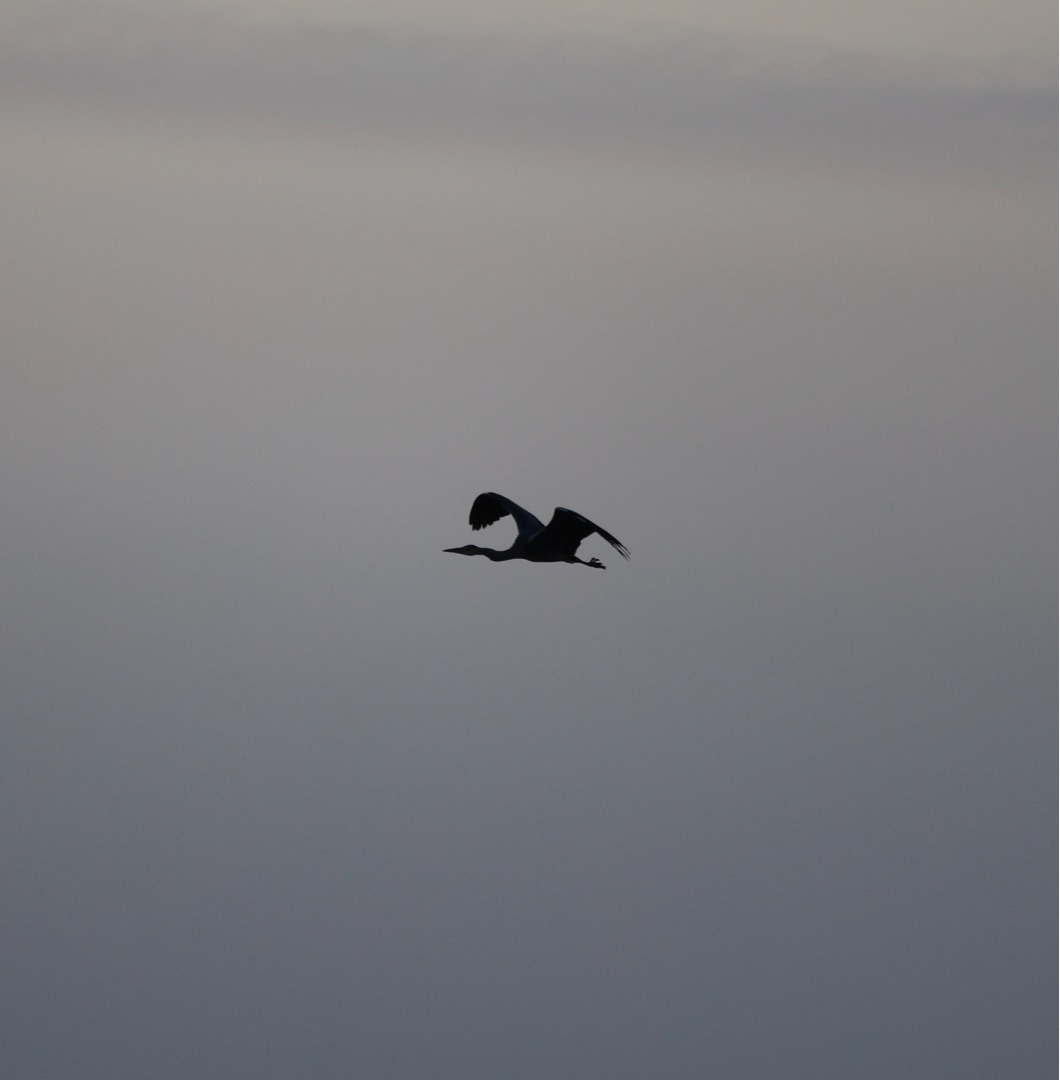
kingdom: Animalia
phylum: Chordata
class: Aves
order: Pelecaniformes
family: Ardeidae
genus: Ardea
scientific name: Ardea cinerea
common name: Fiskehejre
